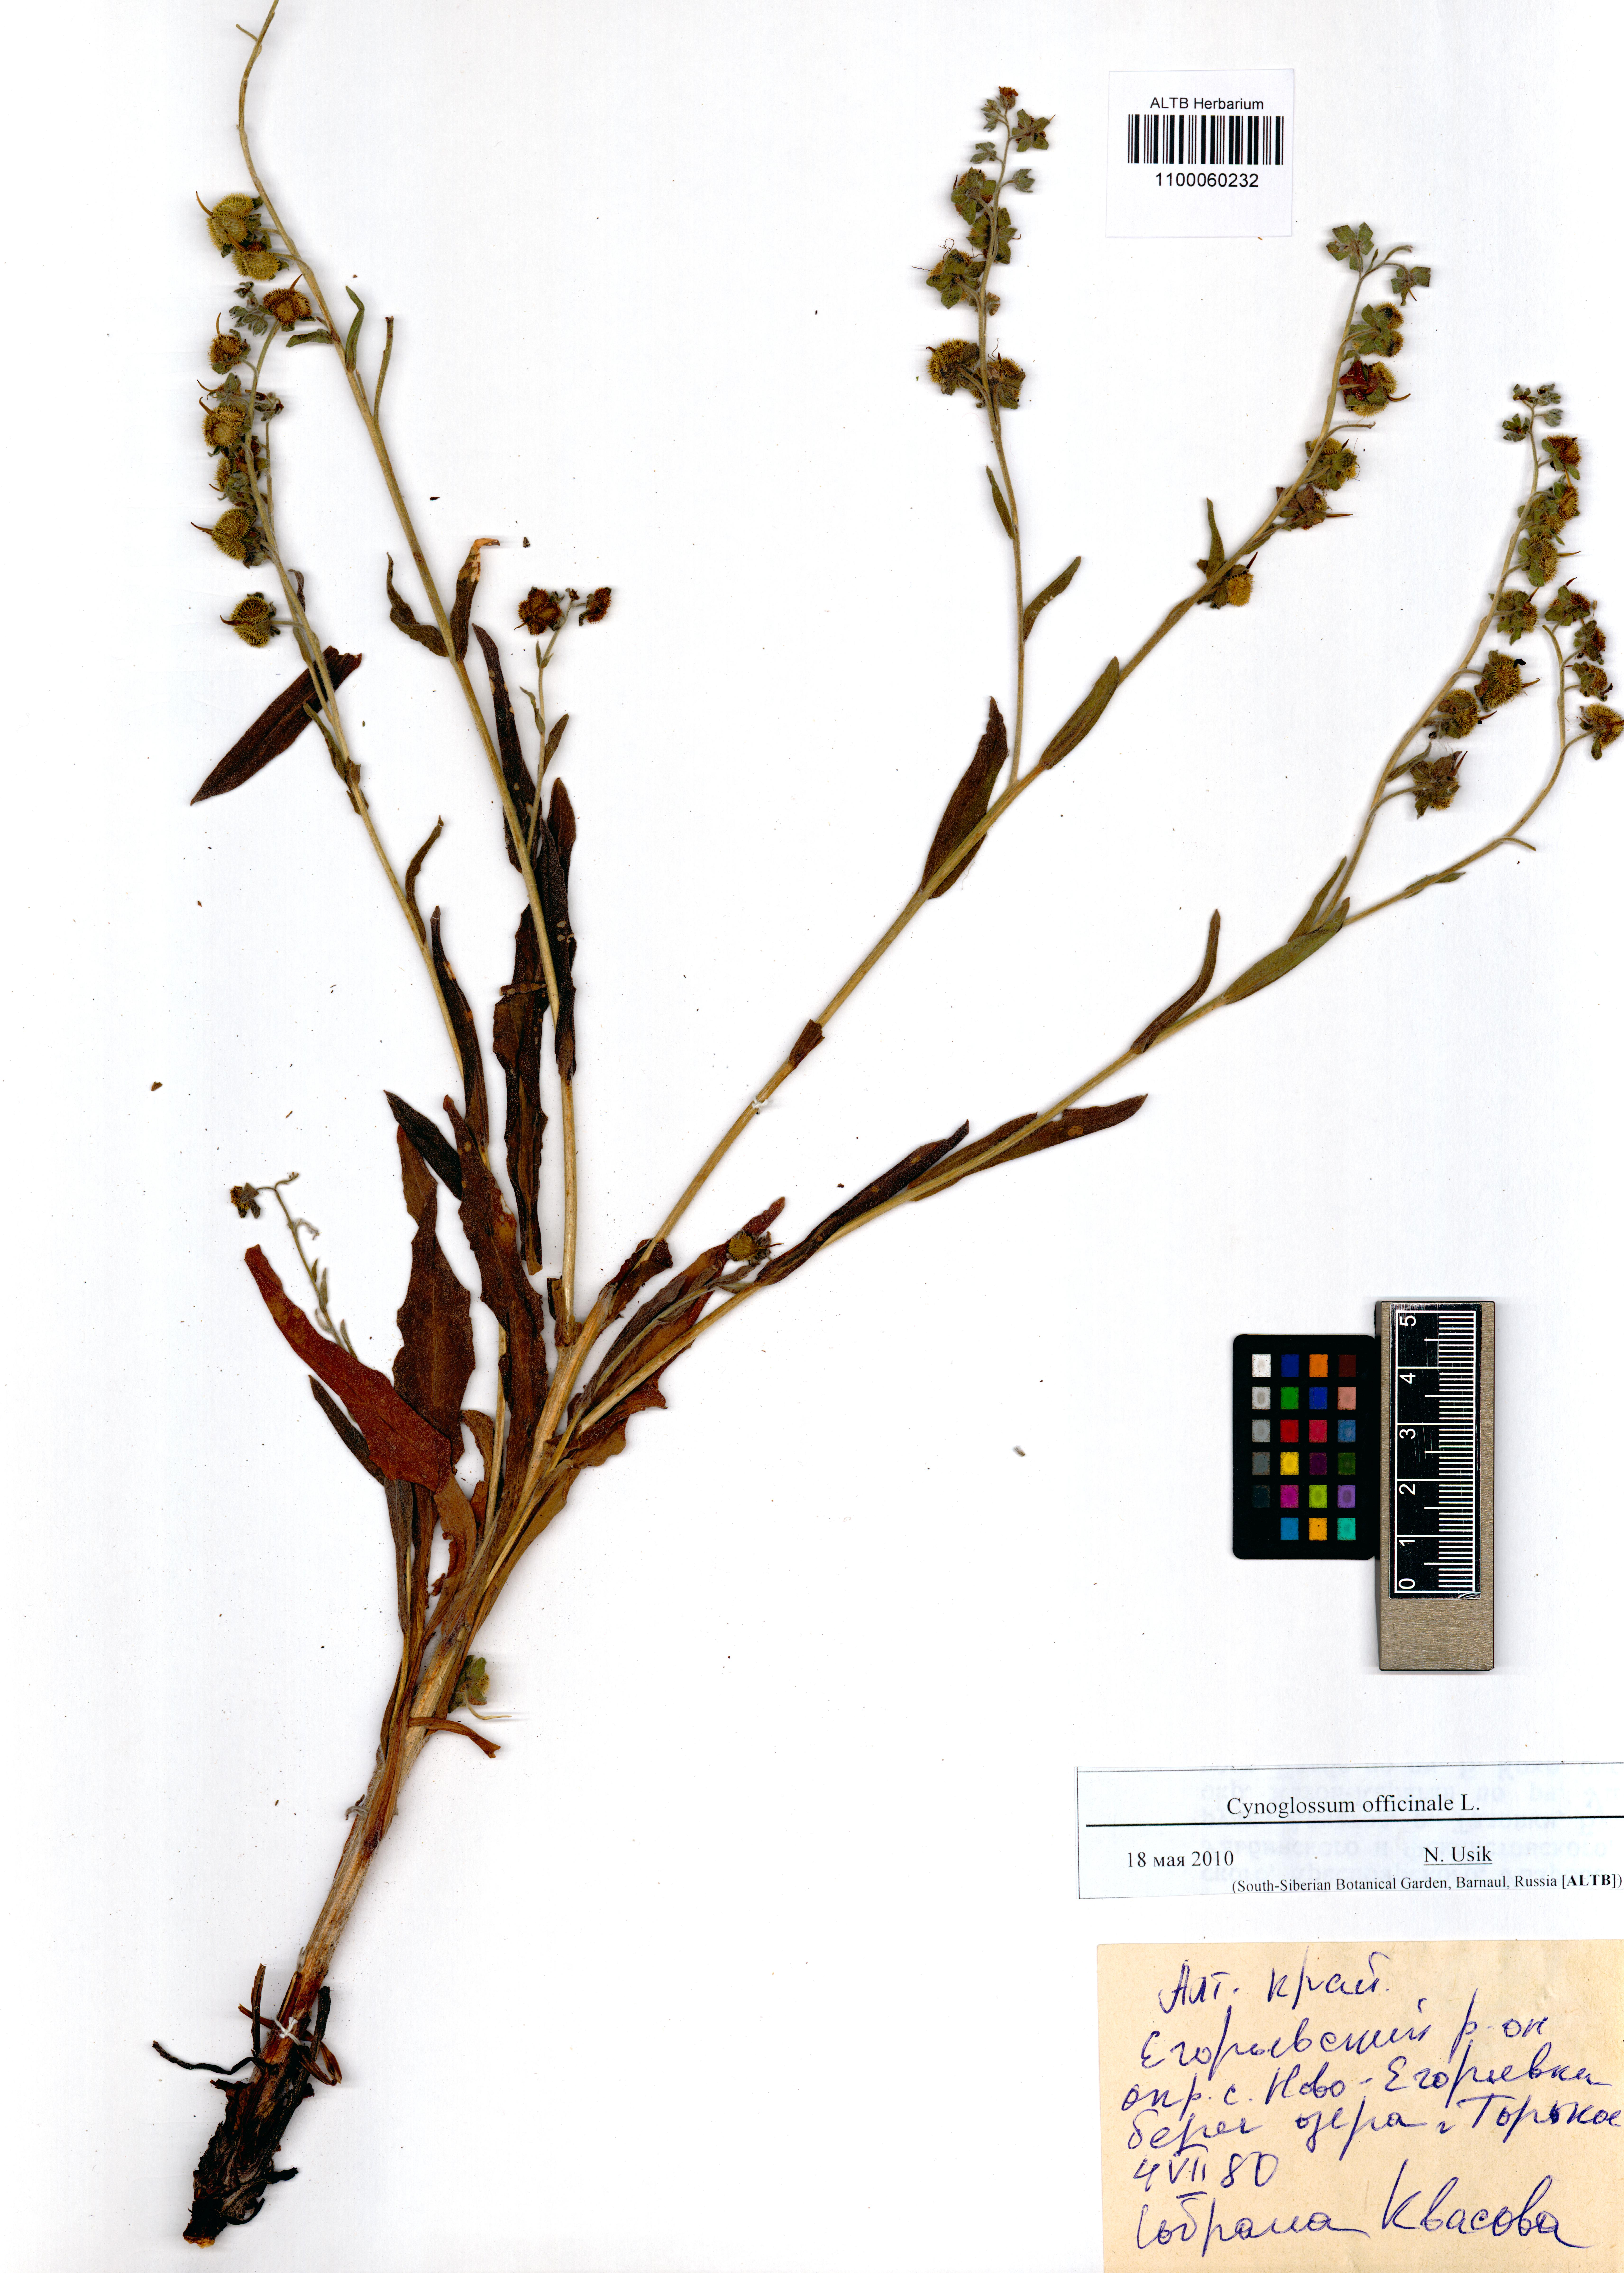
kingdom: Plantae
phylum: Tracheophyta
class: Magnoliopsida
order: Boraginales
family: Boraginaceae
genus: Cynoglossum
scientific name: Cynoglossum officinale
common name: Hound's-tongue
